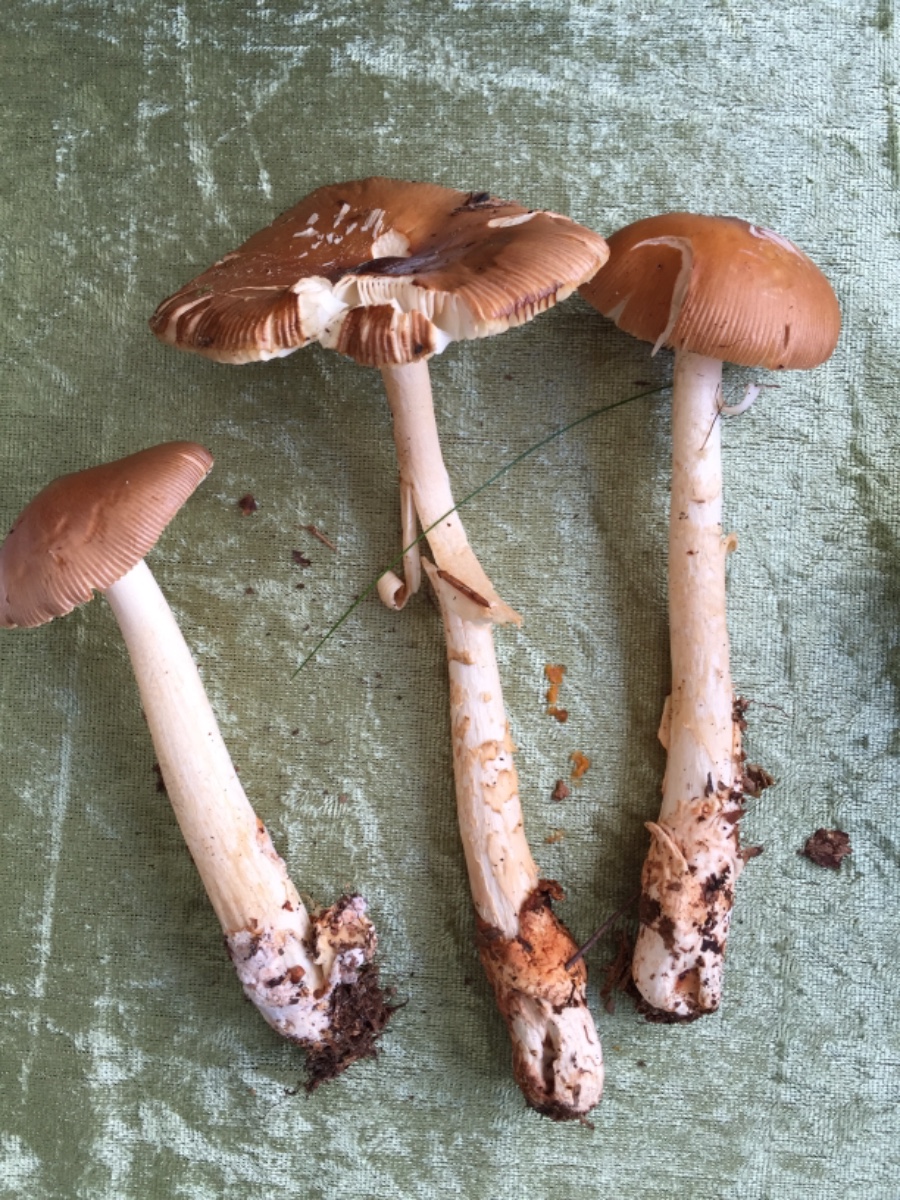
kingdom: Fungi
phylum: Basidiomycota
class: Agaricomycetes
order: Agaricales
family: Amanitaceae
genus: Amanita
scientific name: Amanita fulva
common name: brun kam-fluesvamp
